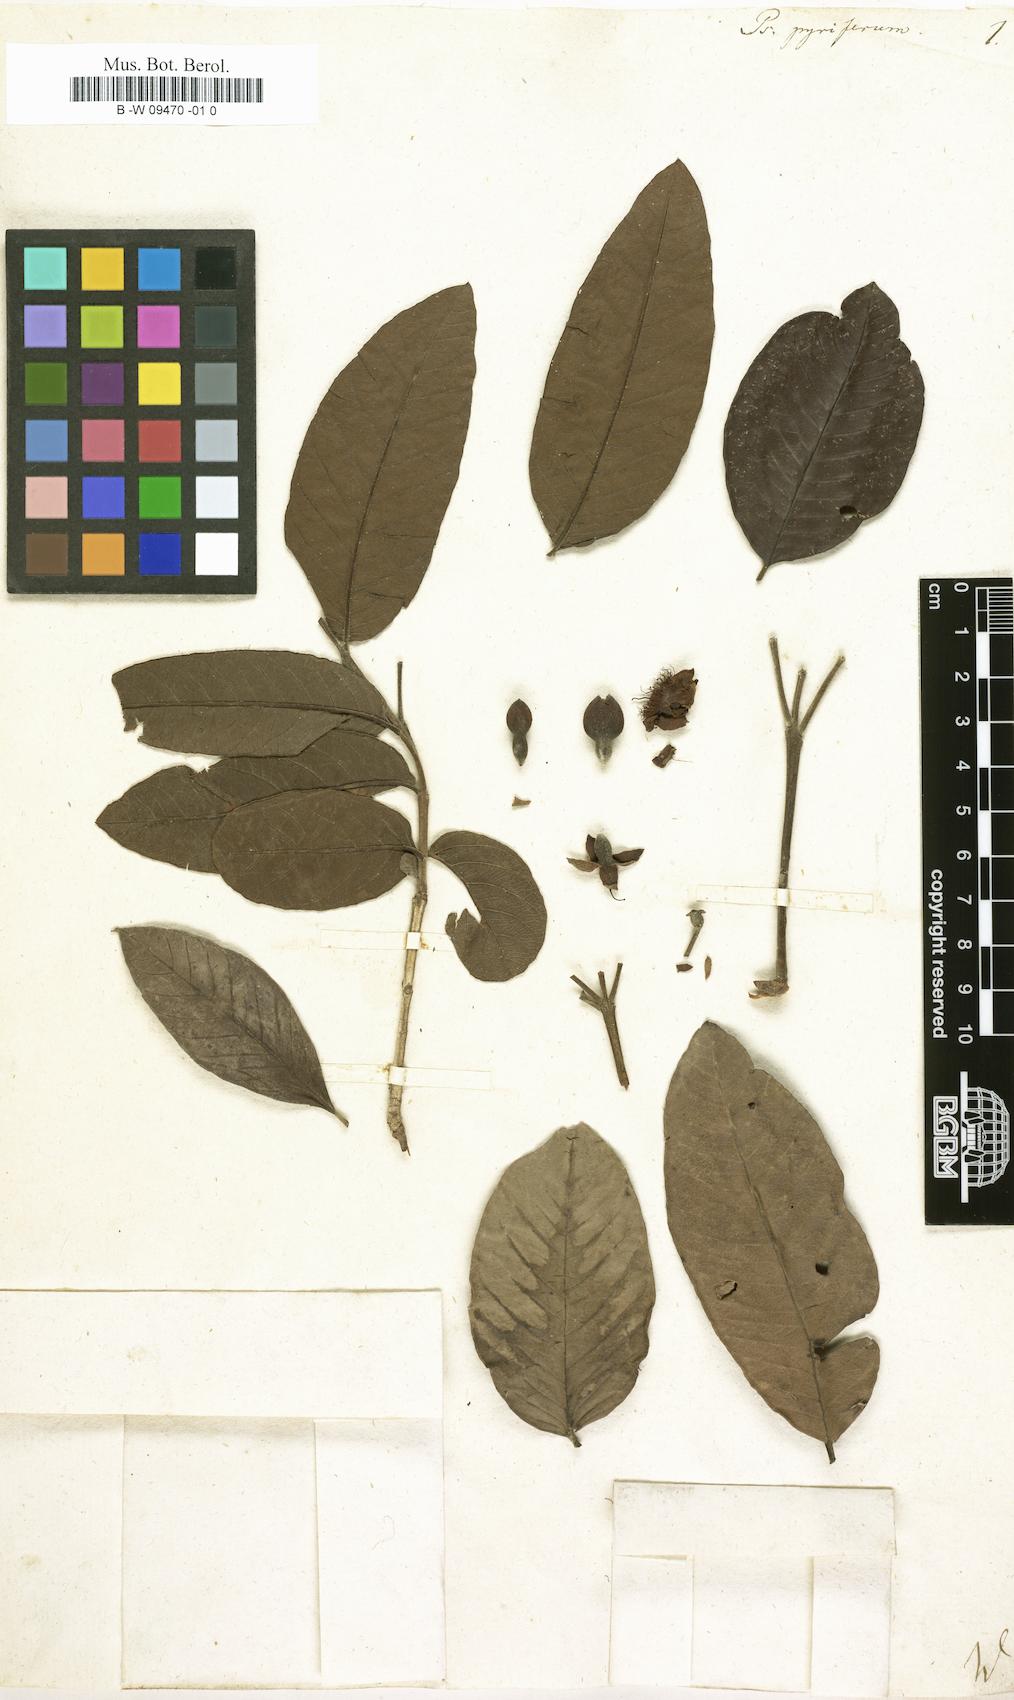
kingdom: Plantae
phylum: Tracheophyta
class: Magnoliopsida
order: Myrtales
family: Myrtaceae
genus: Psidium
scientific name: Psidium guajava
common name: Guava
